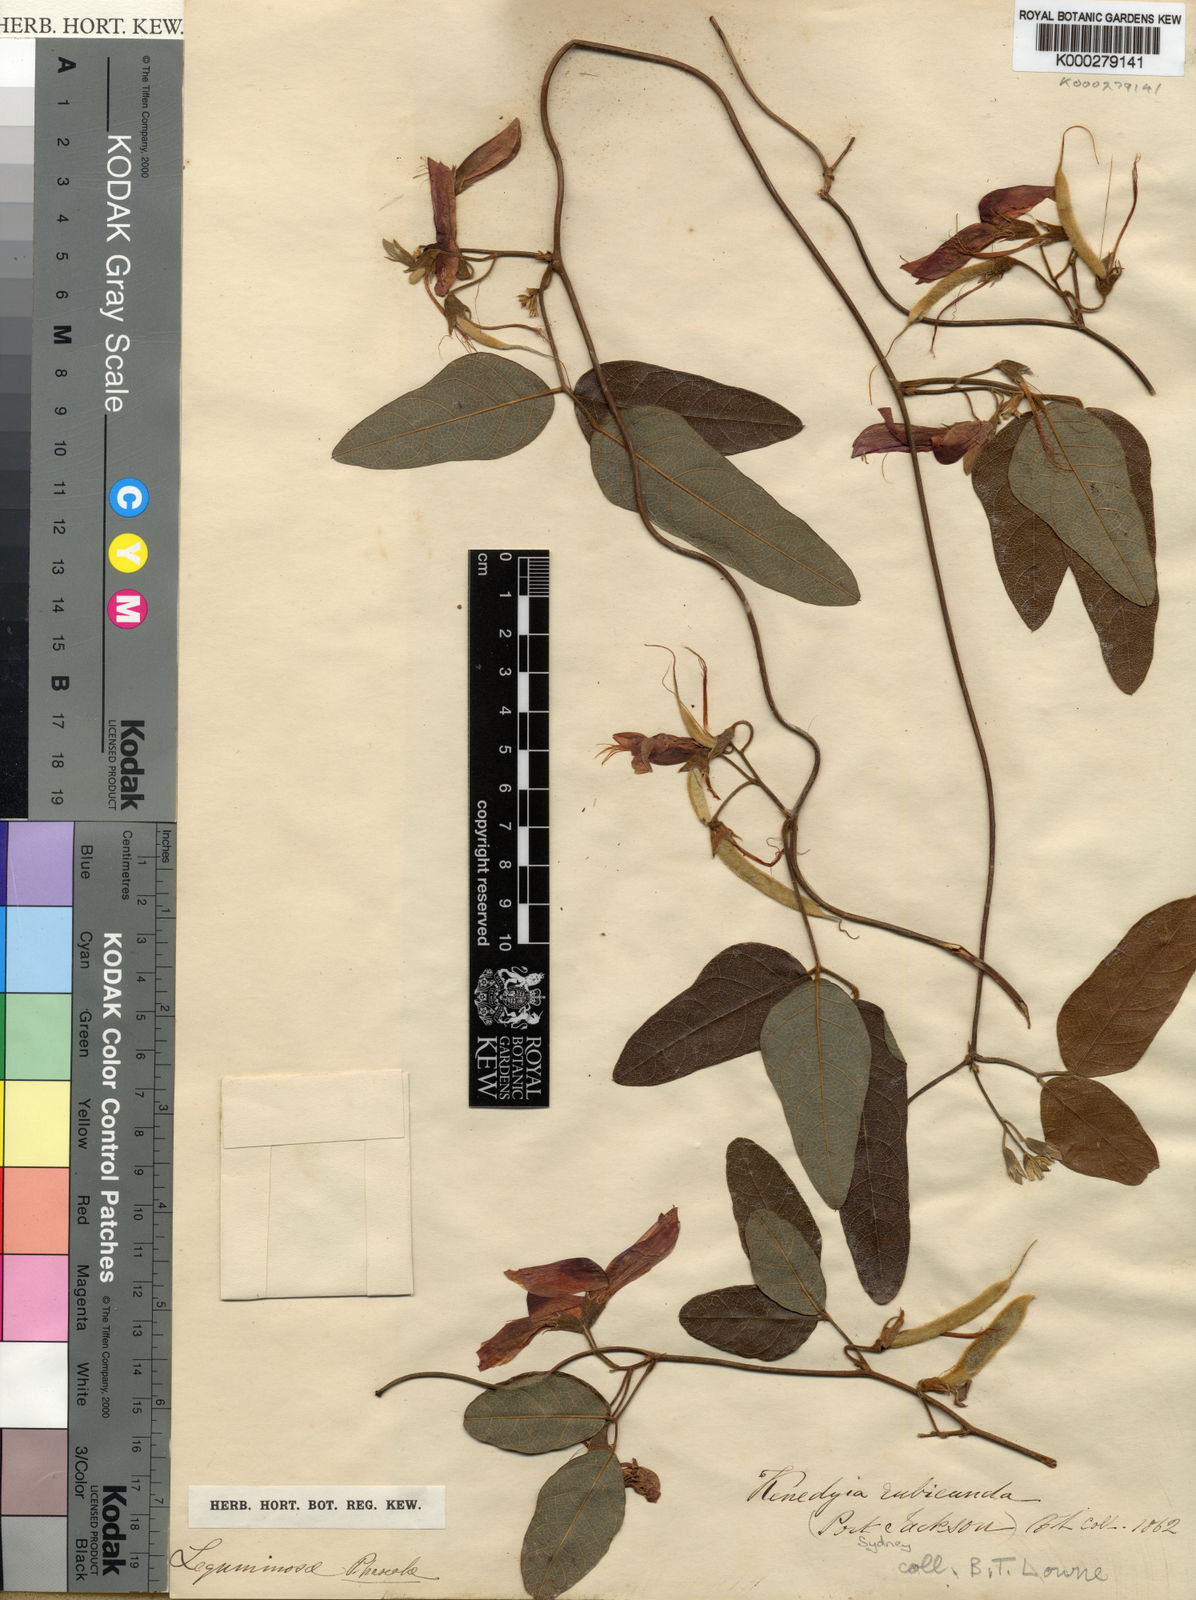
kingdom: Plantae
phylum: Tracheophyta
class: Magnoliopsida
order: Fabales
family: Fabaceae
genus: Kennedia
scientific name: Kennedia rubicunda
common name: Red kennedy-pea
